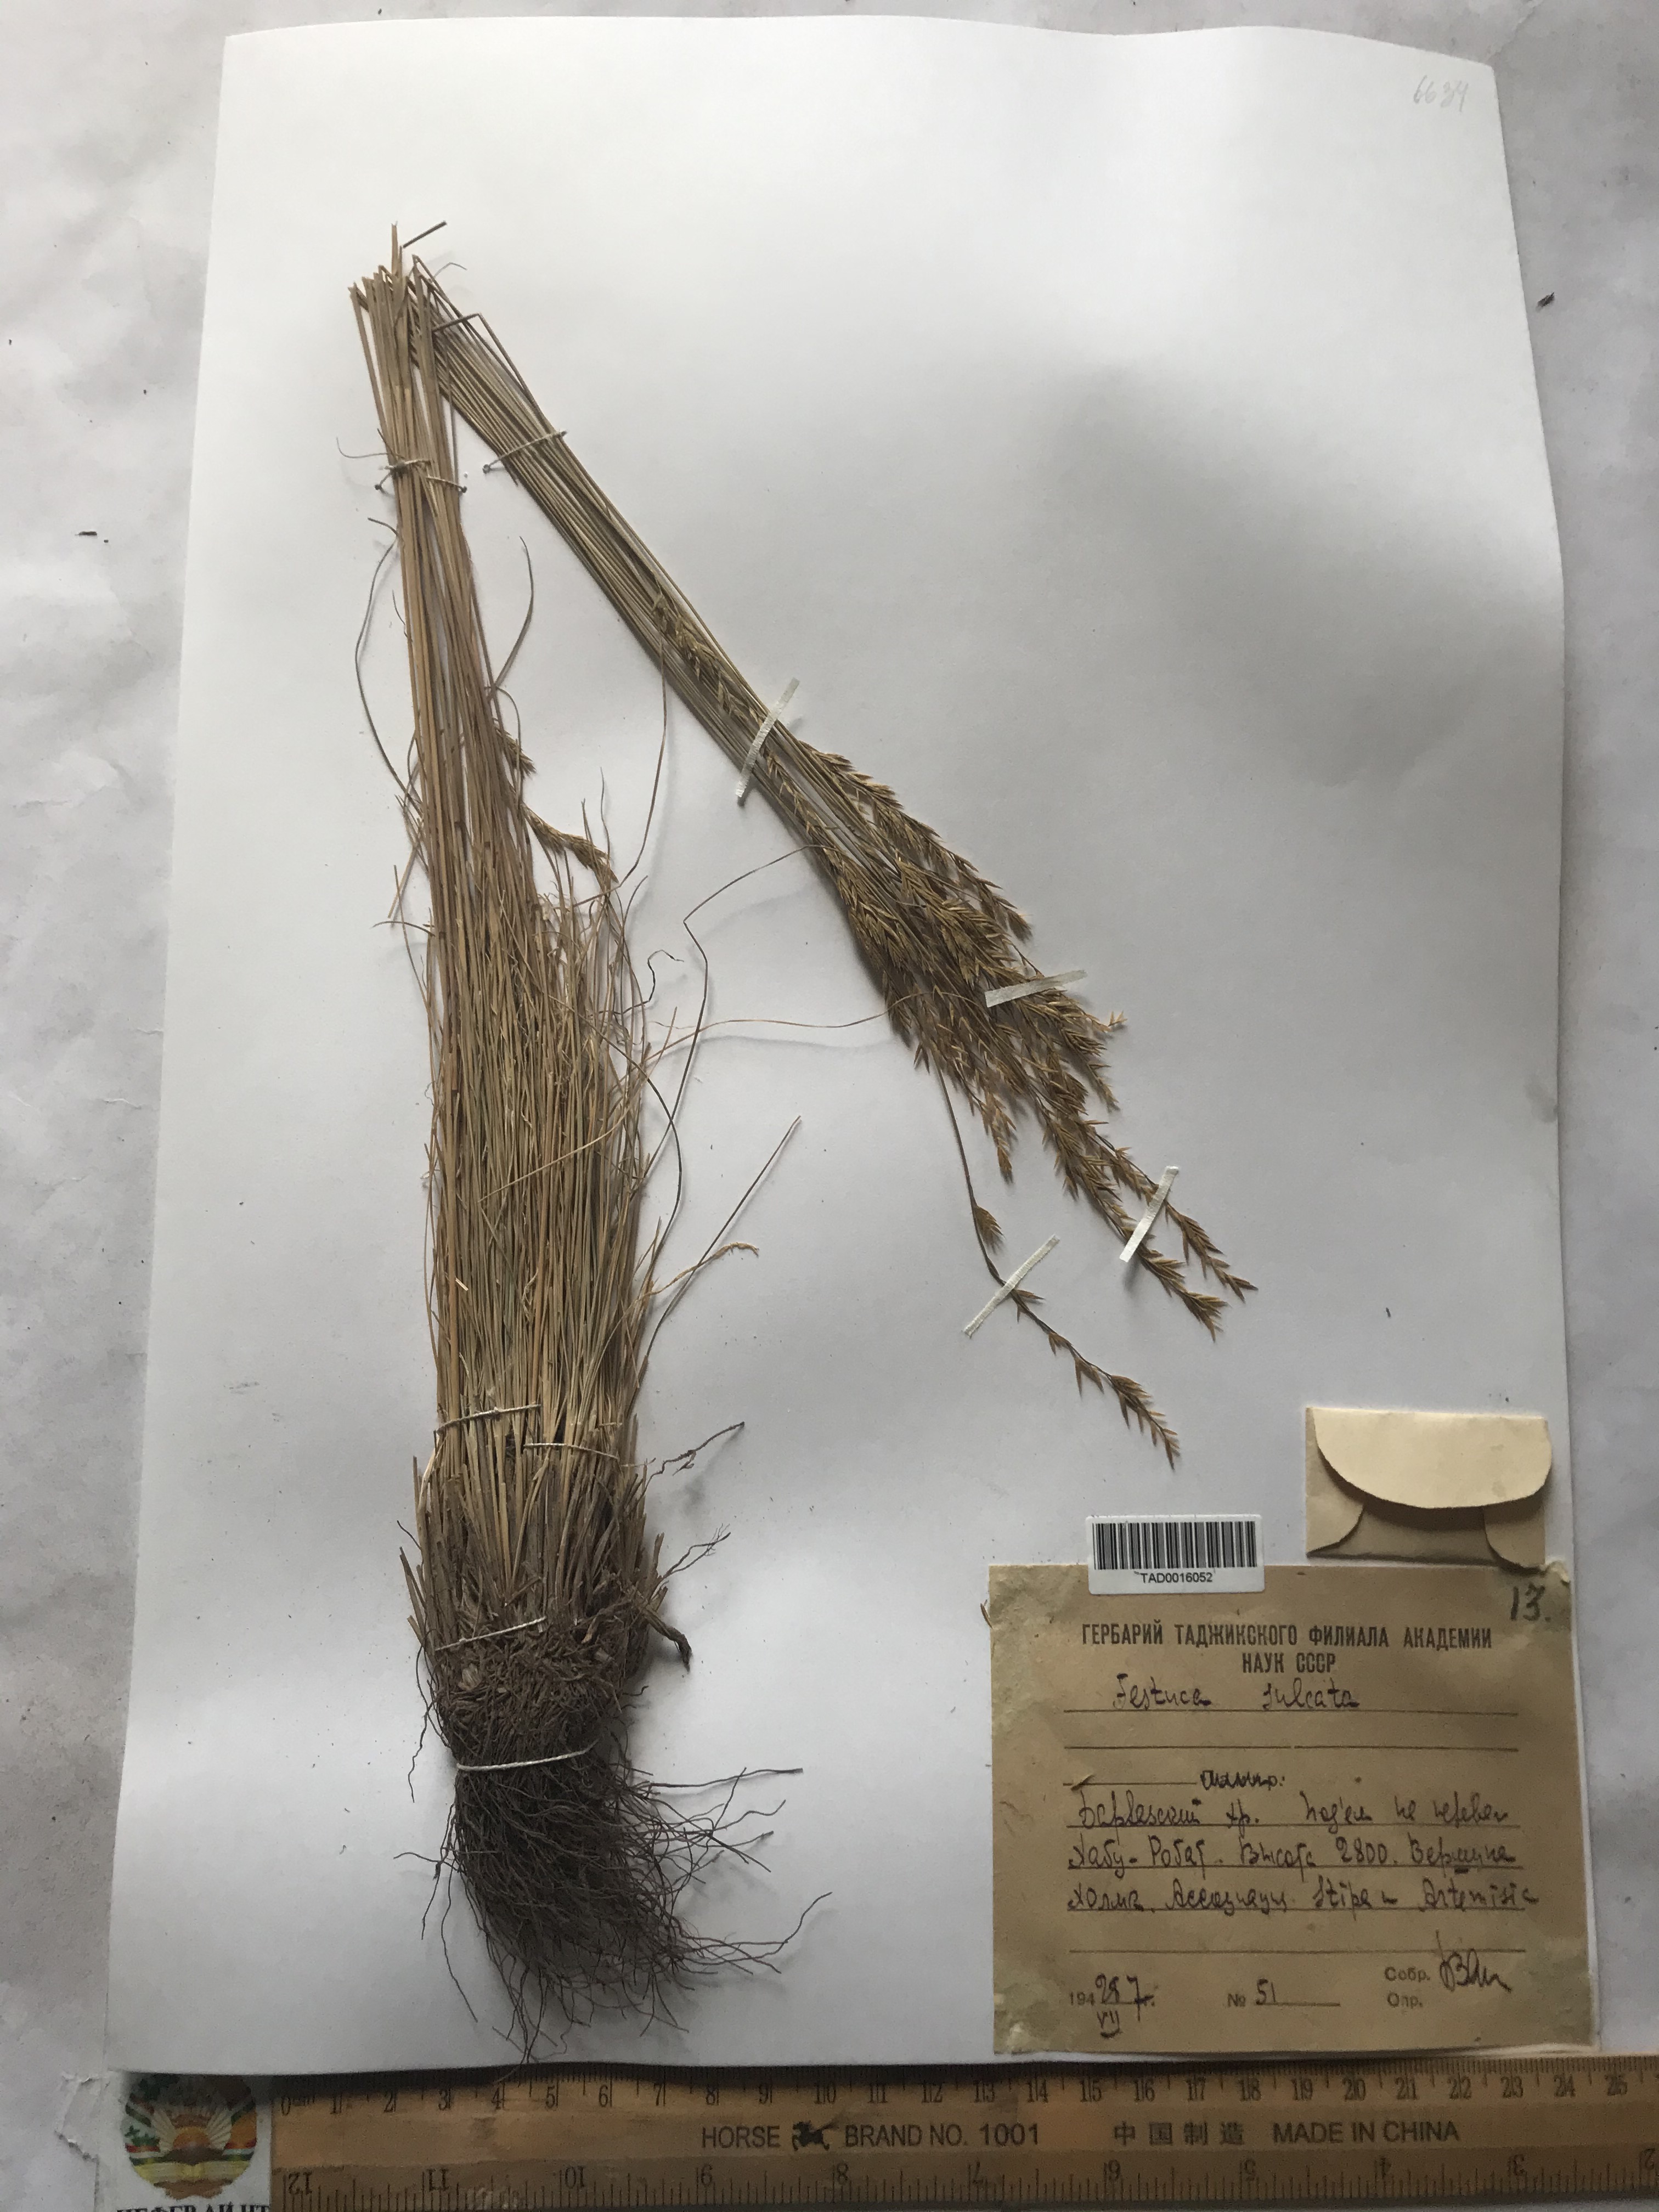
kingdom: Plantae
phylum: Tracheophyta
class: Liliopsida
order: Poales
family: Poaceae
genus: Festuca
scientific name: Festuca sulcata
